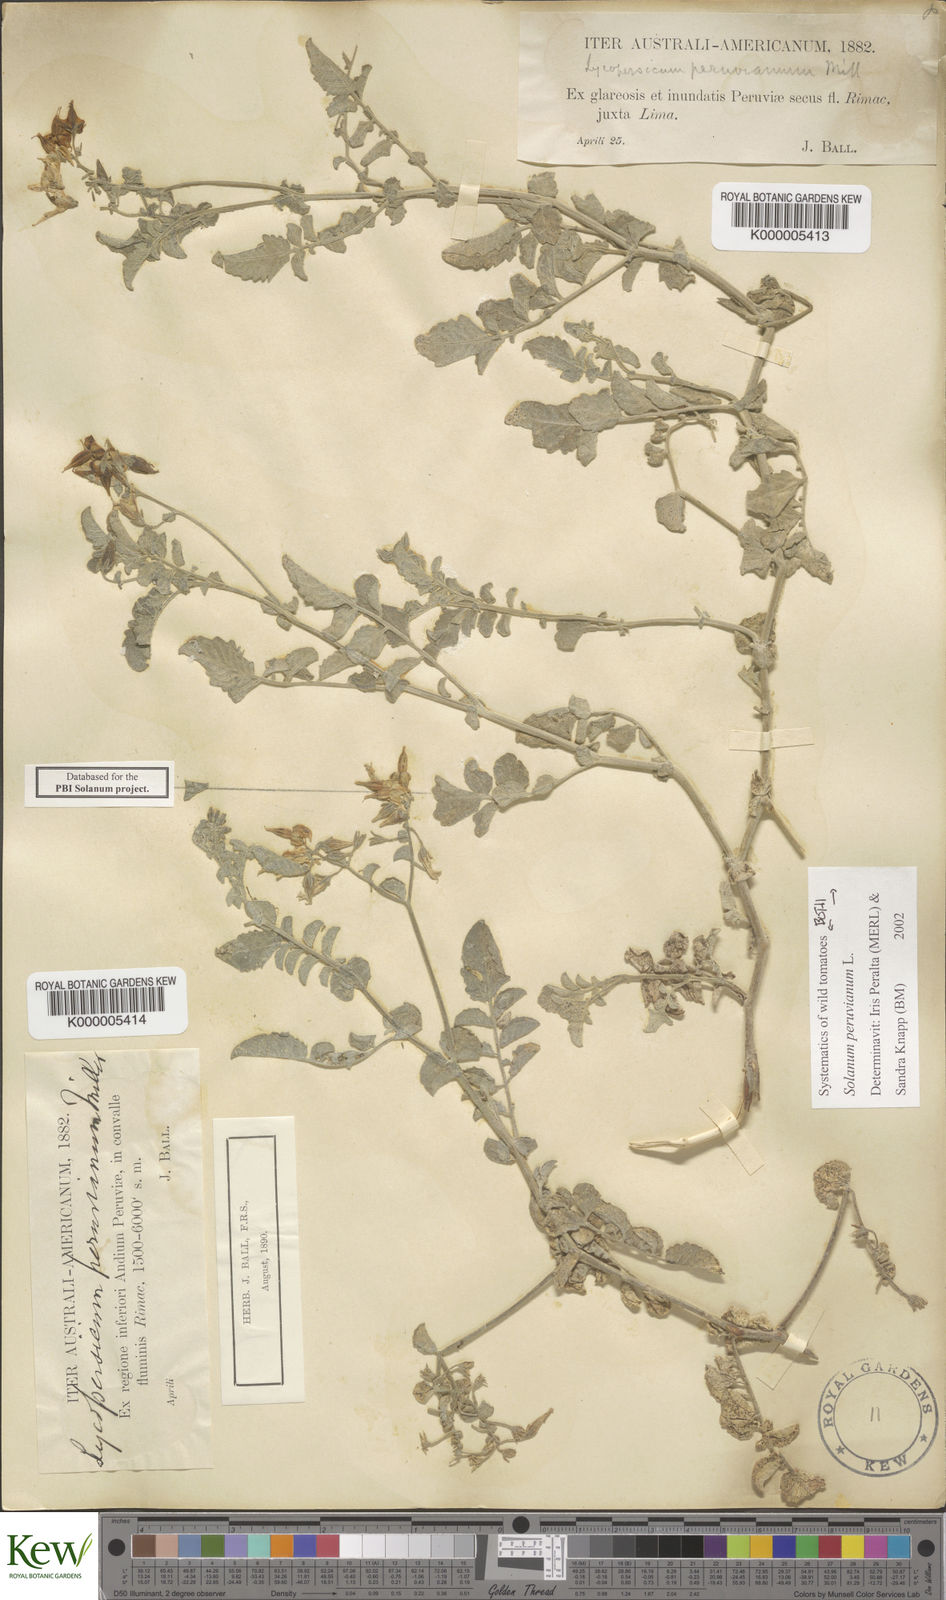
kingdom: Plantae
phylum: Tracheophyta
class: Magnoliopsida
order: Solanales
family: Solanaceae
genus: Solanum
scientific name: Solanum peruvianum
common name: Peruvian nightshade
